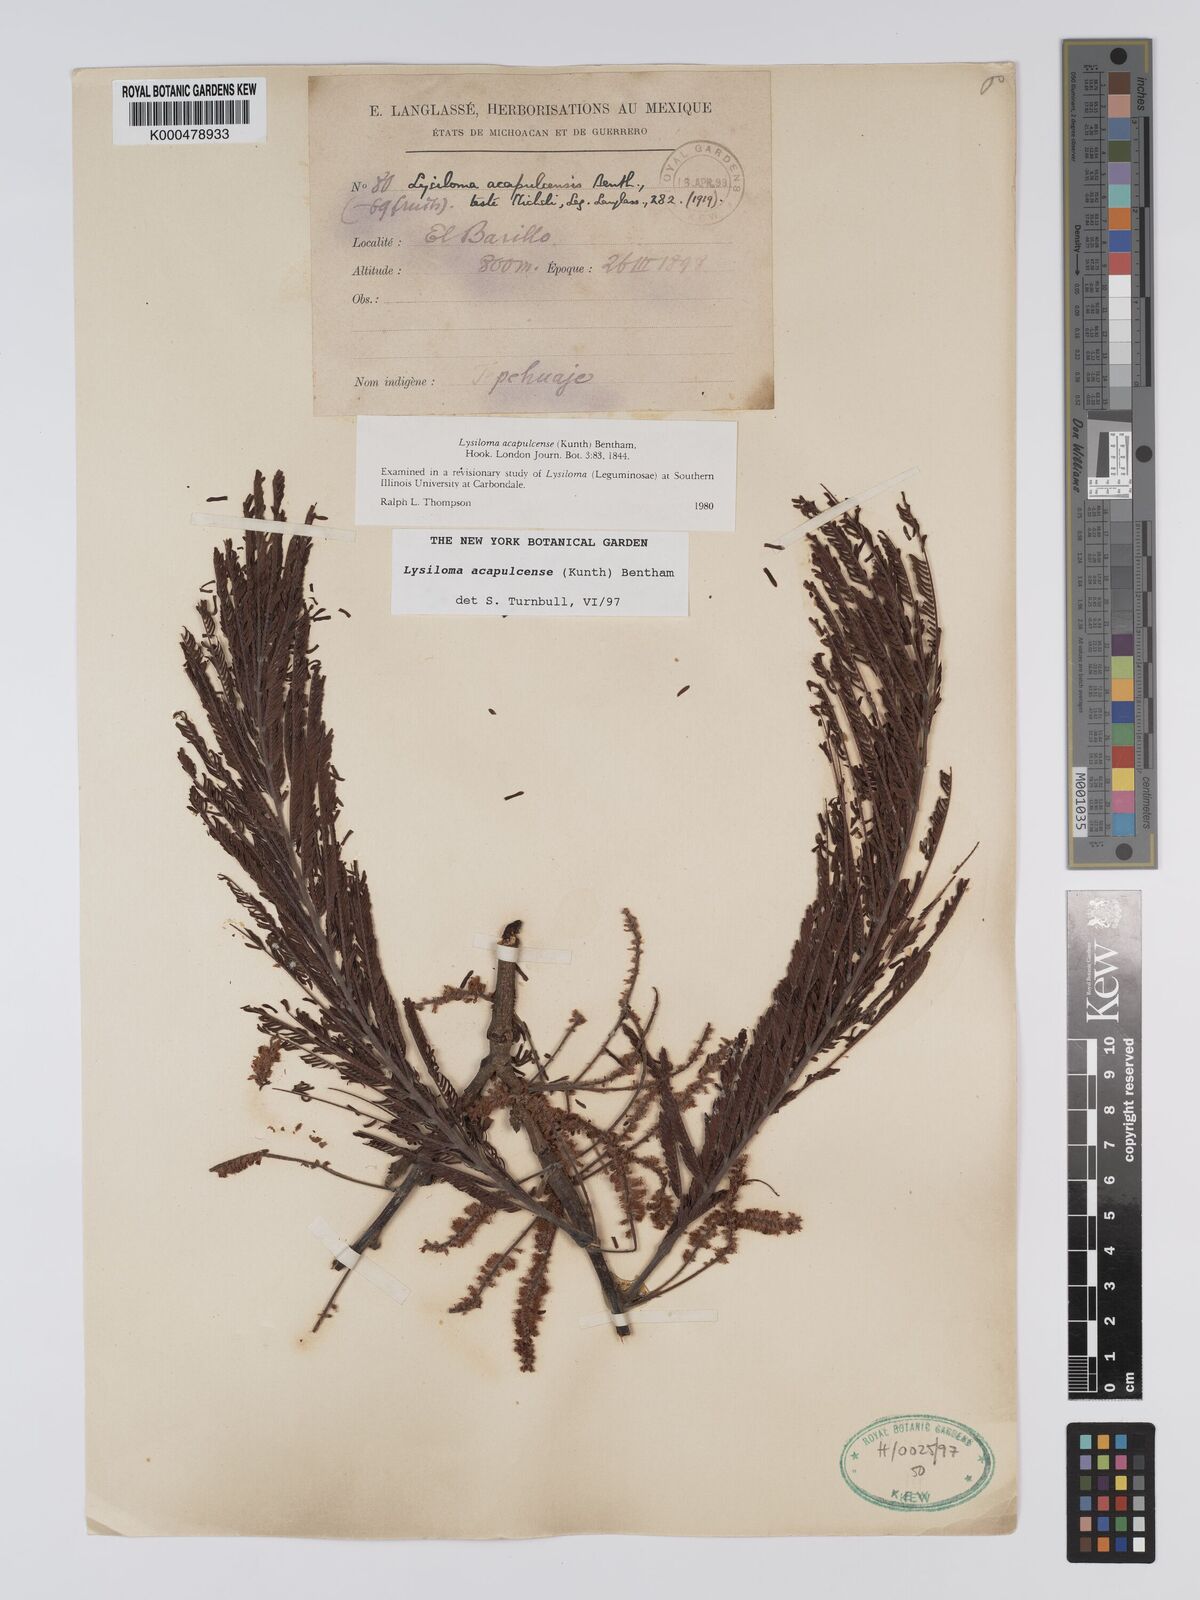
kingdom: Plantae
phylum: Tracheophyta
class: Magnoliopsida
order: Fabales
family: Fabaceae
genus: Lysiloma
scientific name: Lysiloma
